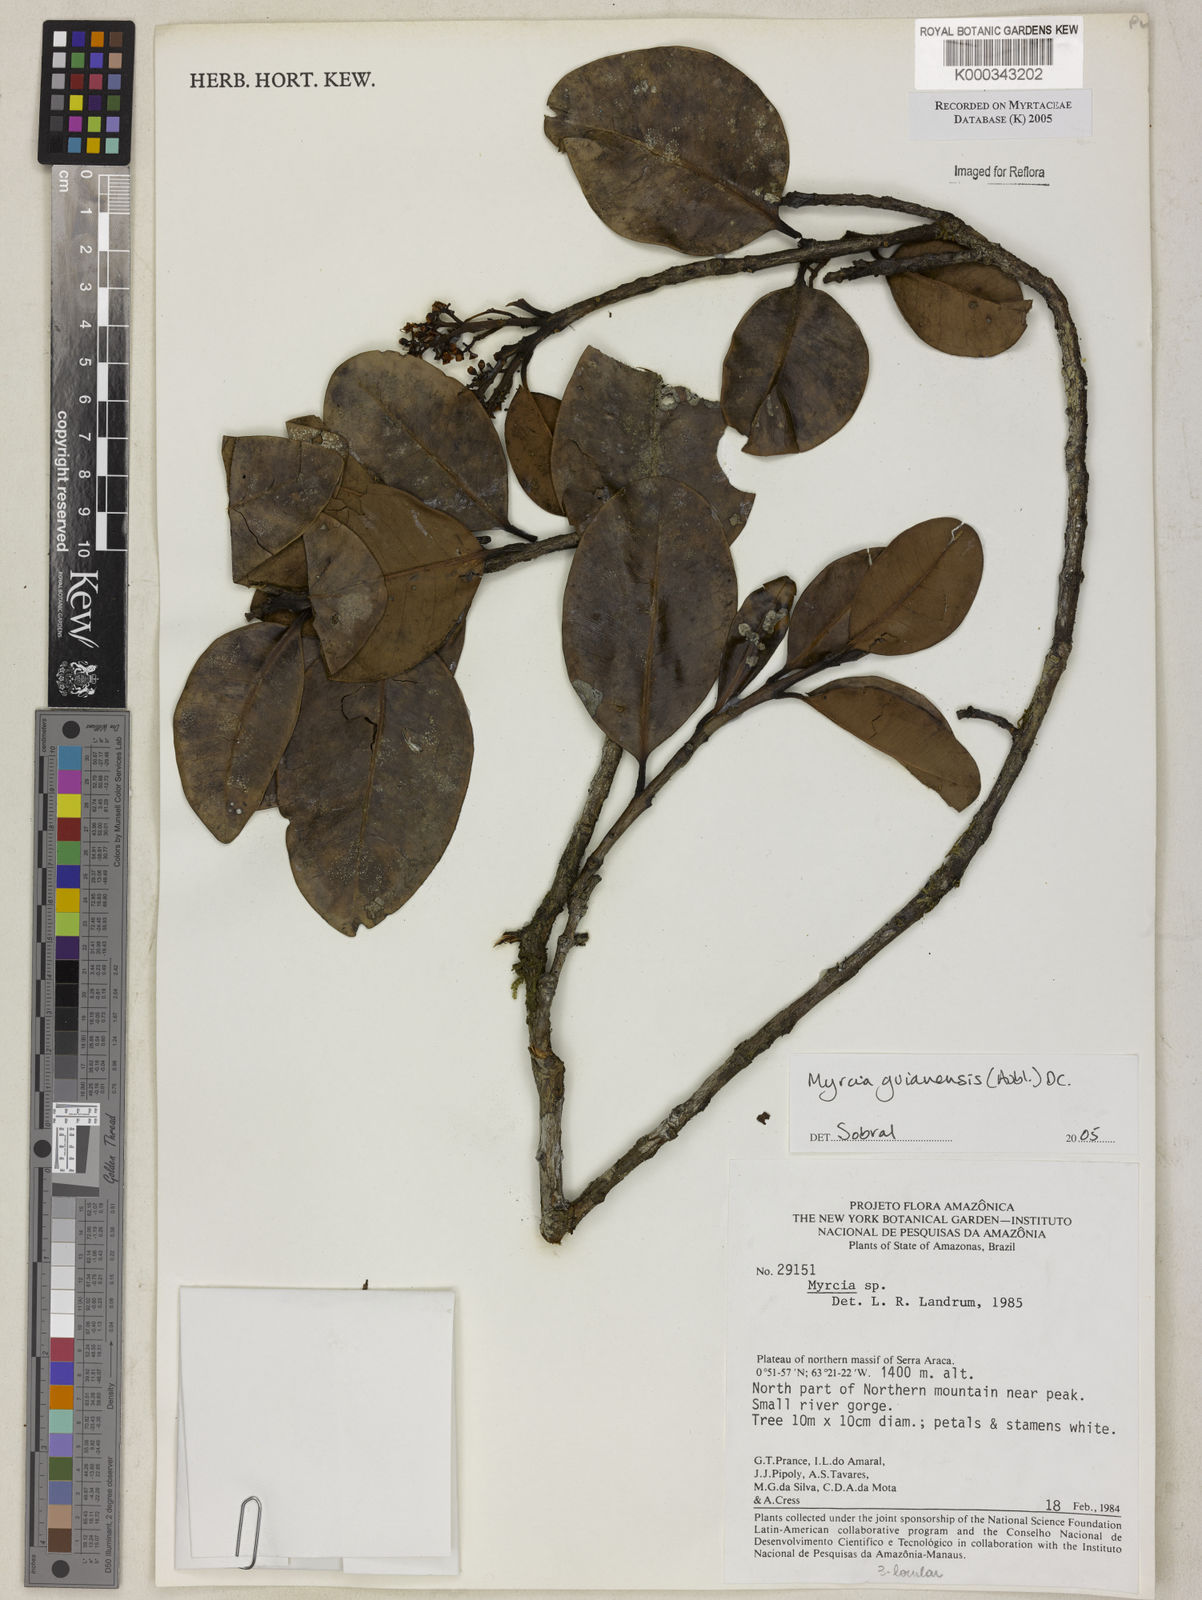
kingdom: Plantae
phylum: Tracheophyta
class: Magnoliopsida
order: Myrtales
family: Myrtaceae
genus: Myrcia
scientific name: Myrcia guianensis
